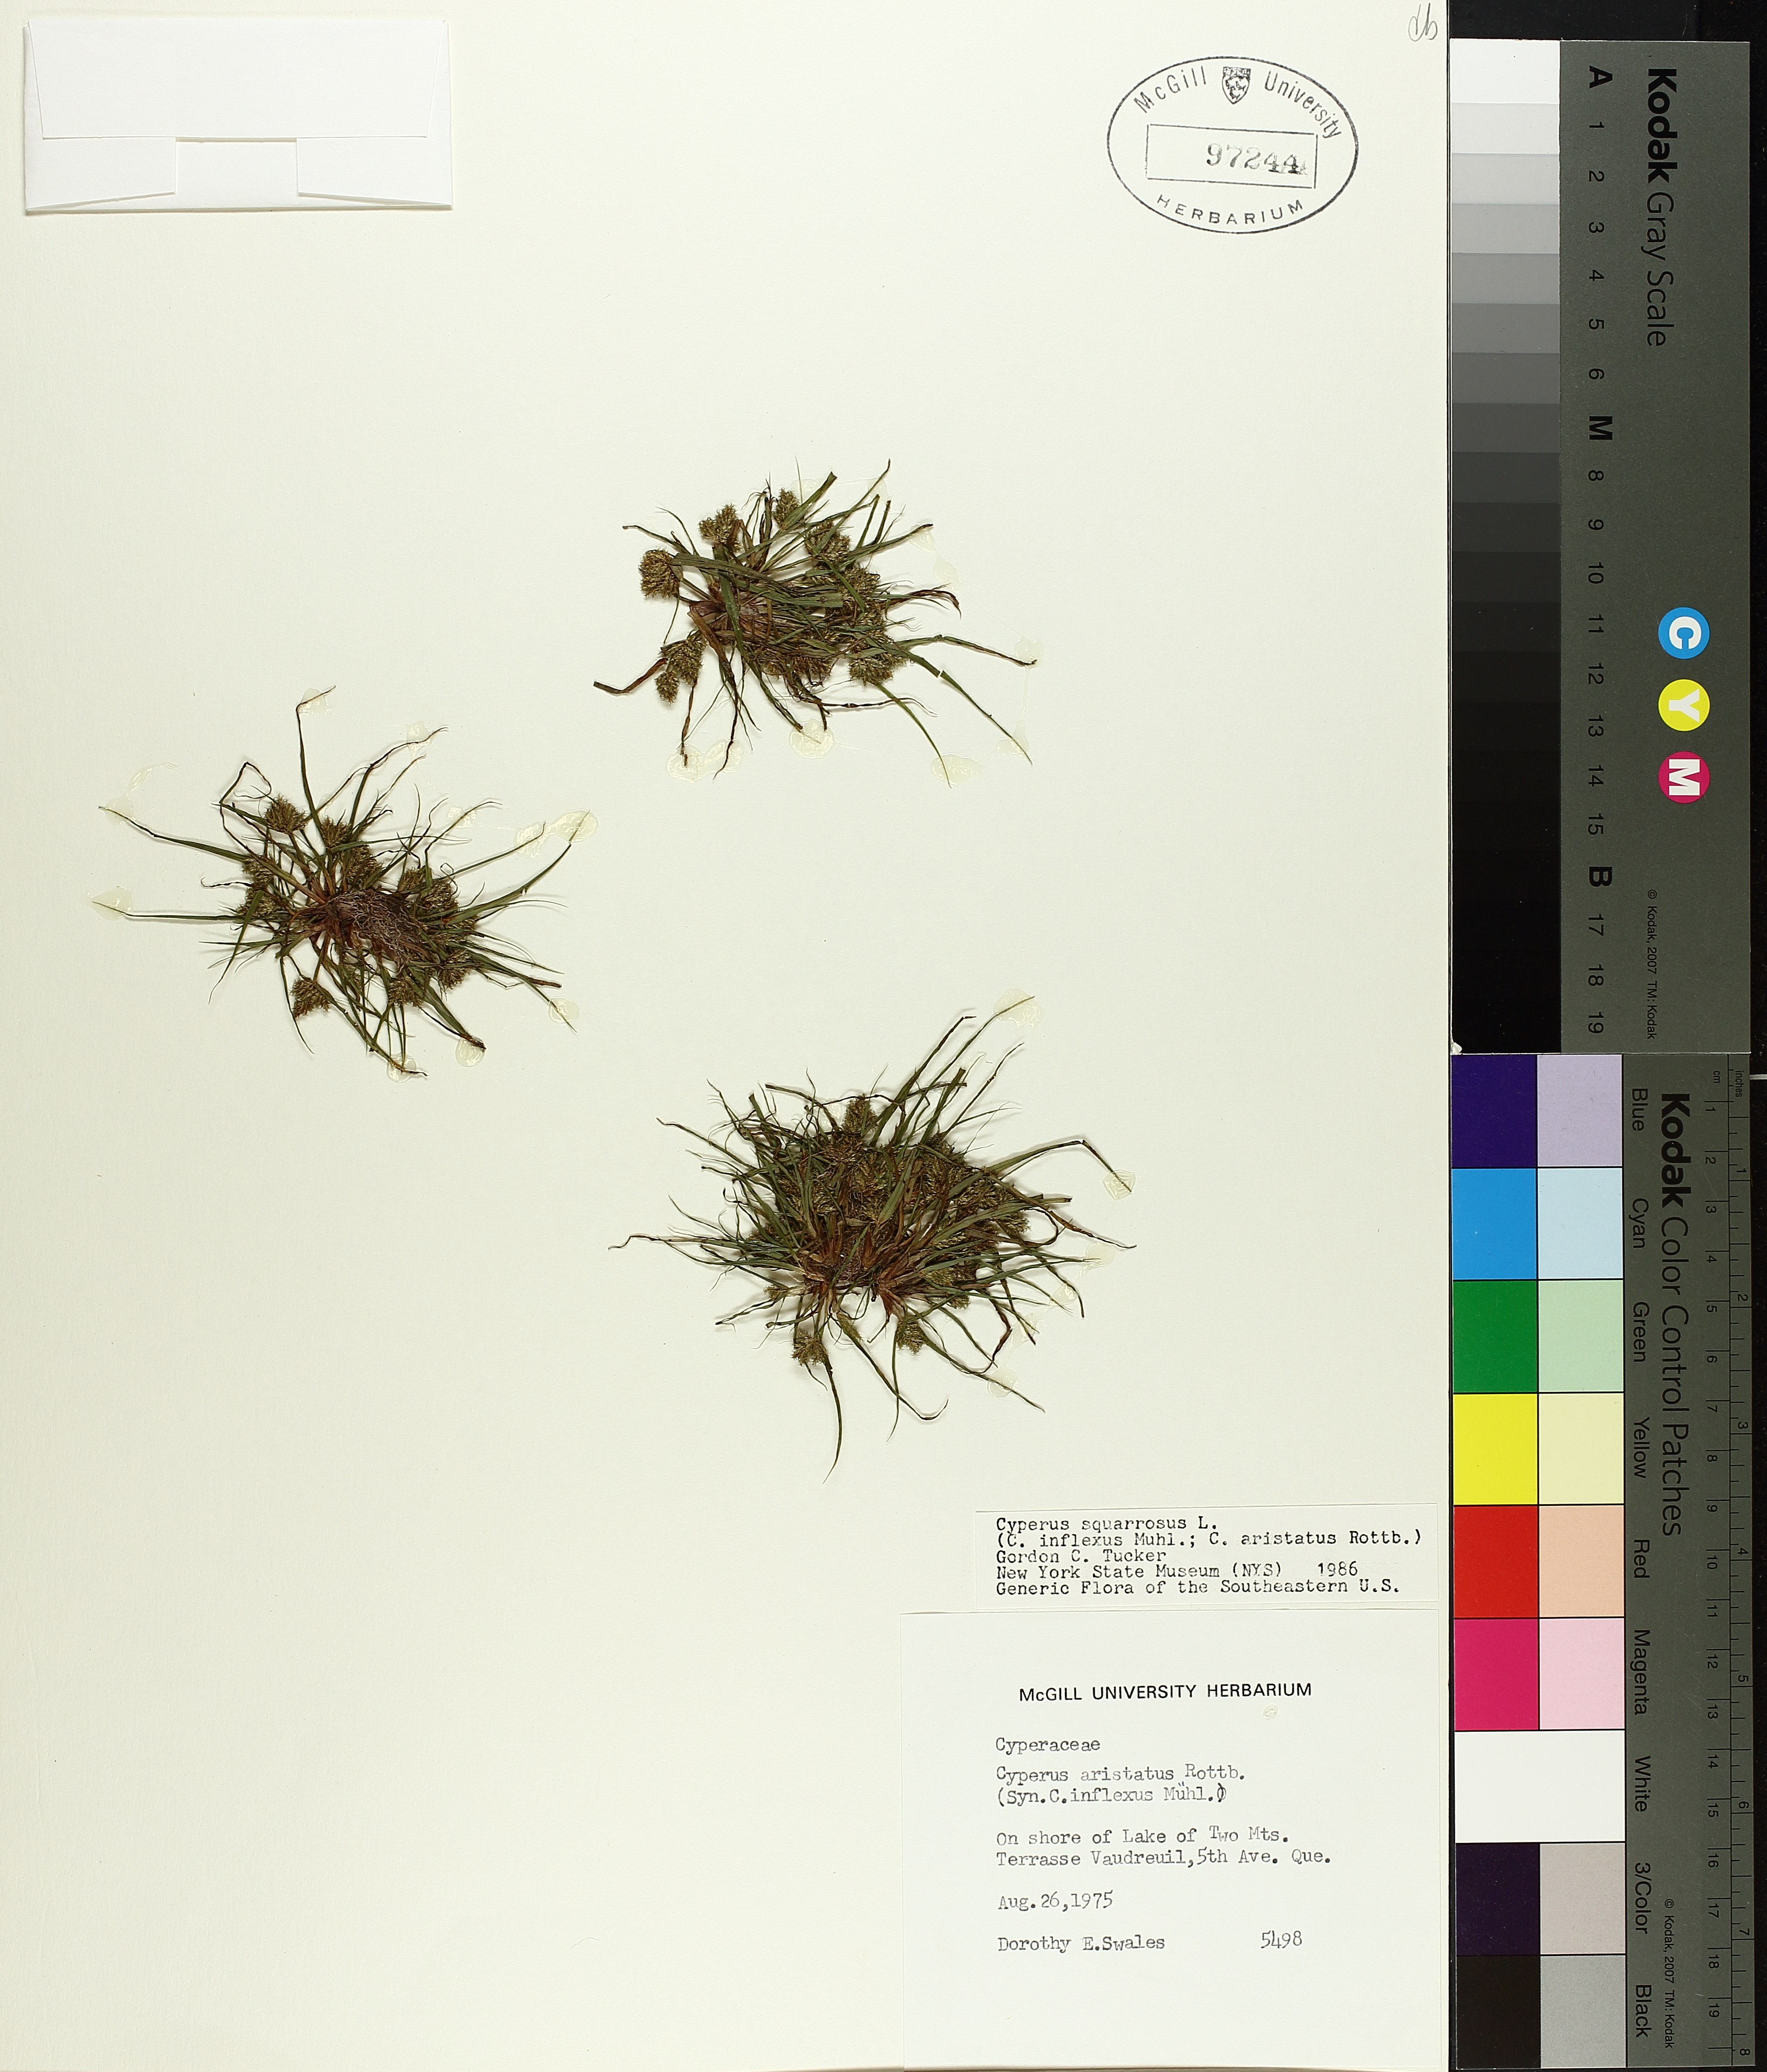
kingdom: Plantae
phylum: Tracheophyta
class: Liliopsida
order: Poales
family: Cyperaceae
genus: Cyperus
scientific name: Cyperus squarrosus
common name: Awned cyperus
